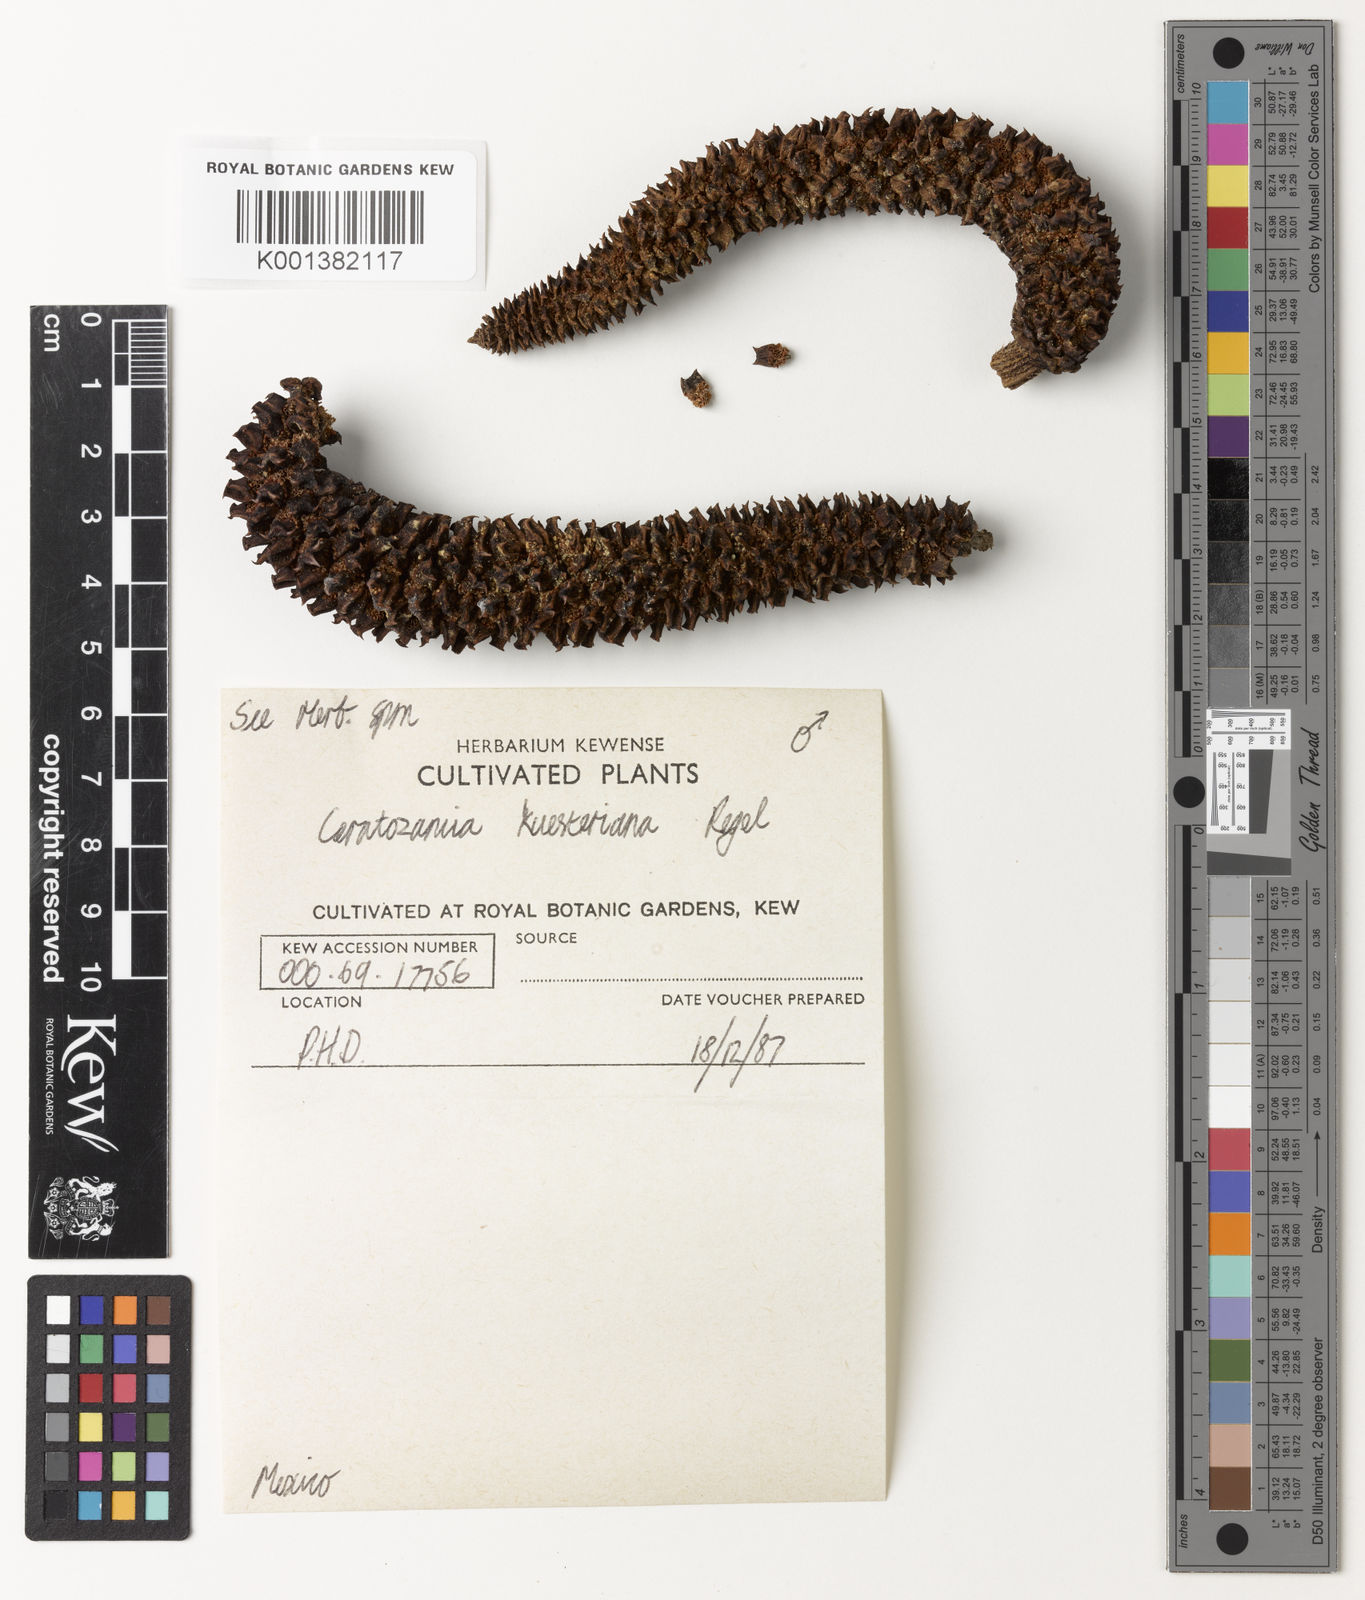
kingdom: Plantae
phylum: Tracheophyta
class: Cycadopsida
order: Cycadales
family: Zamiaceae
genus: Ceratozamia
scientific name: Ceratozamia kuesteriana
